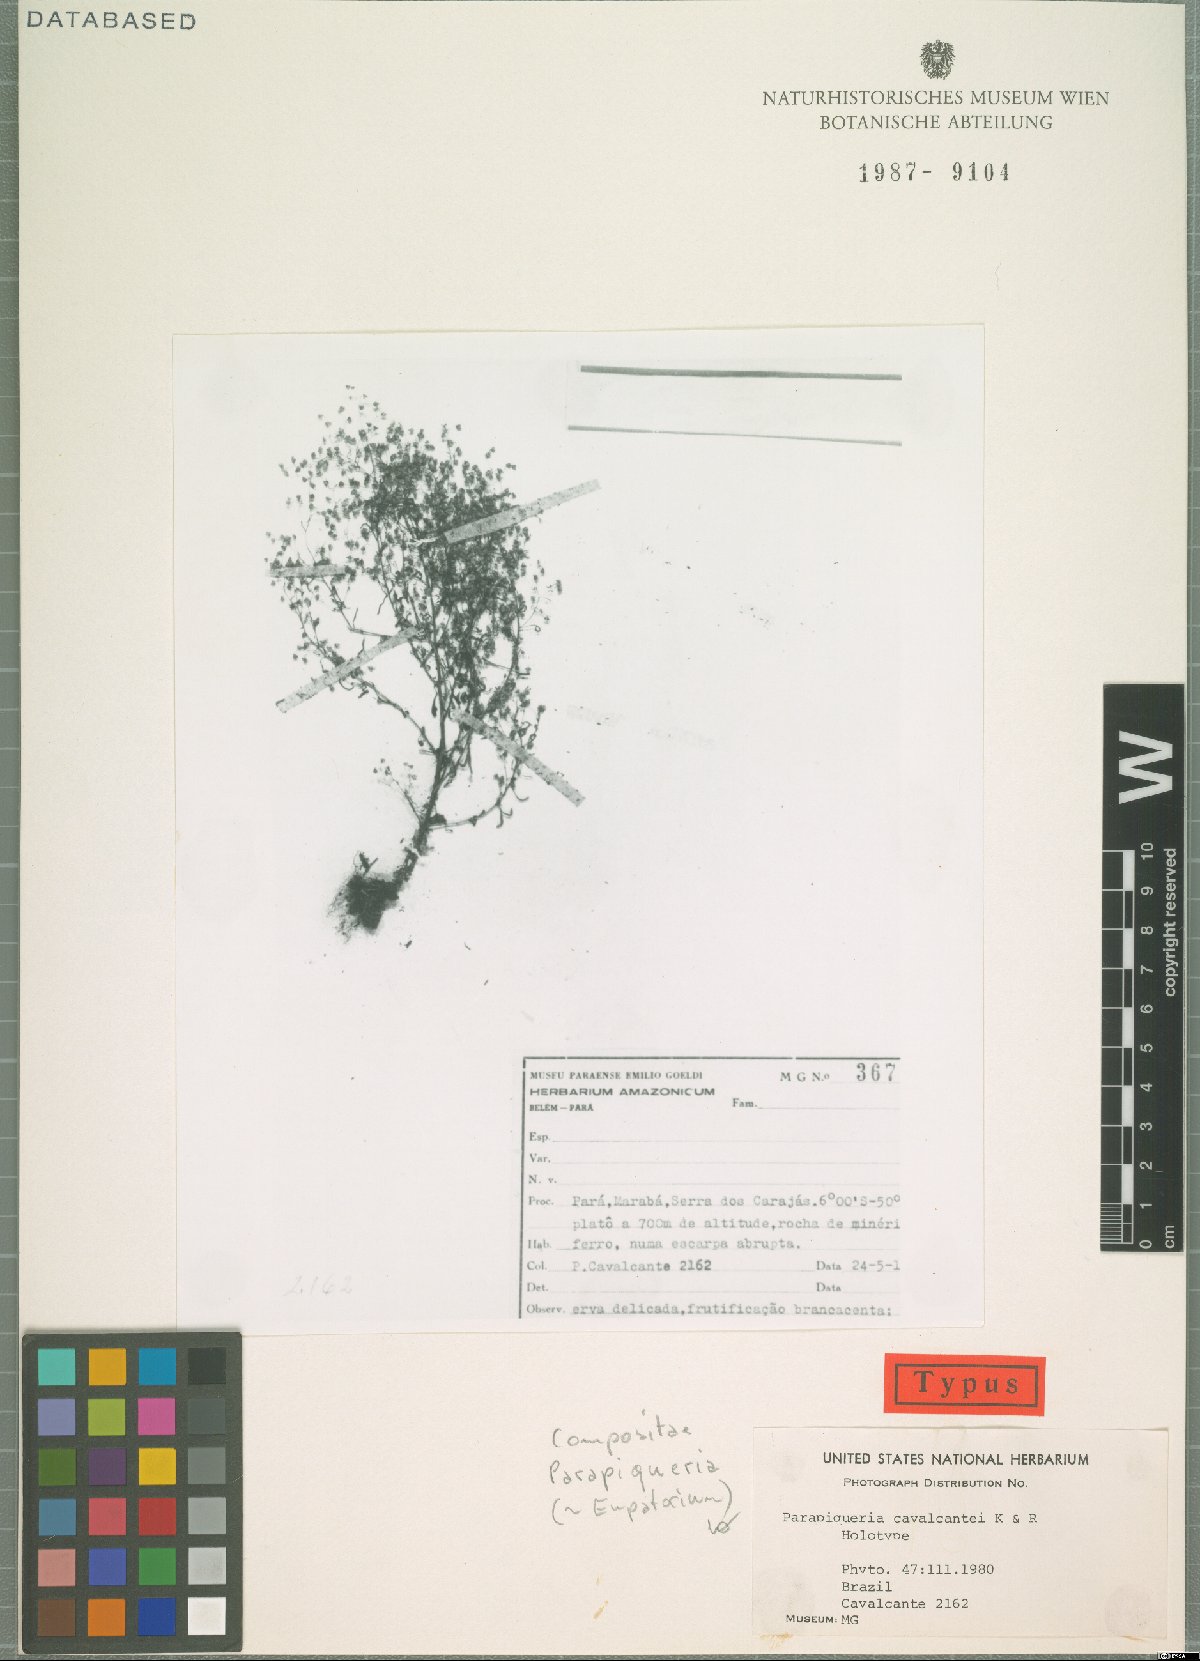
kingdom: Plantae
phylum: Tracheophyta
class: Magnoliopsida
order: Asterales
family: Asteraceae
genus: Parapiqueria
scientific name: Parapiqueria cavalcantei
